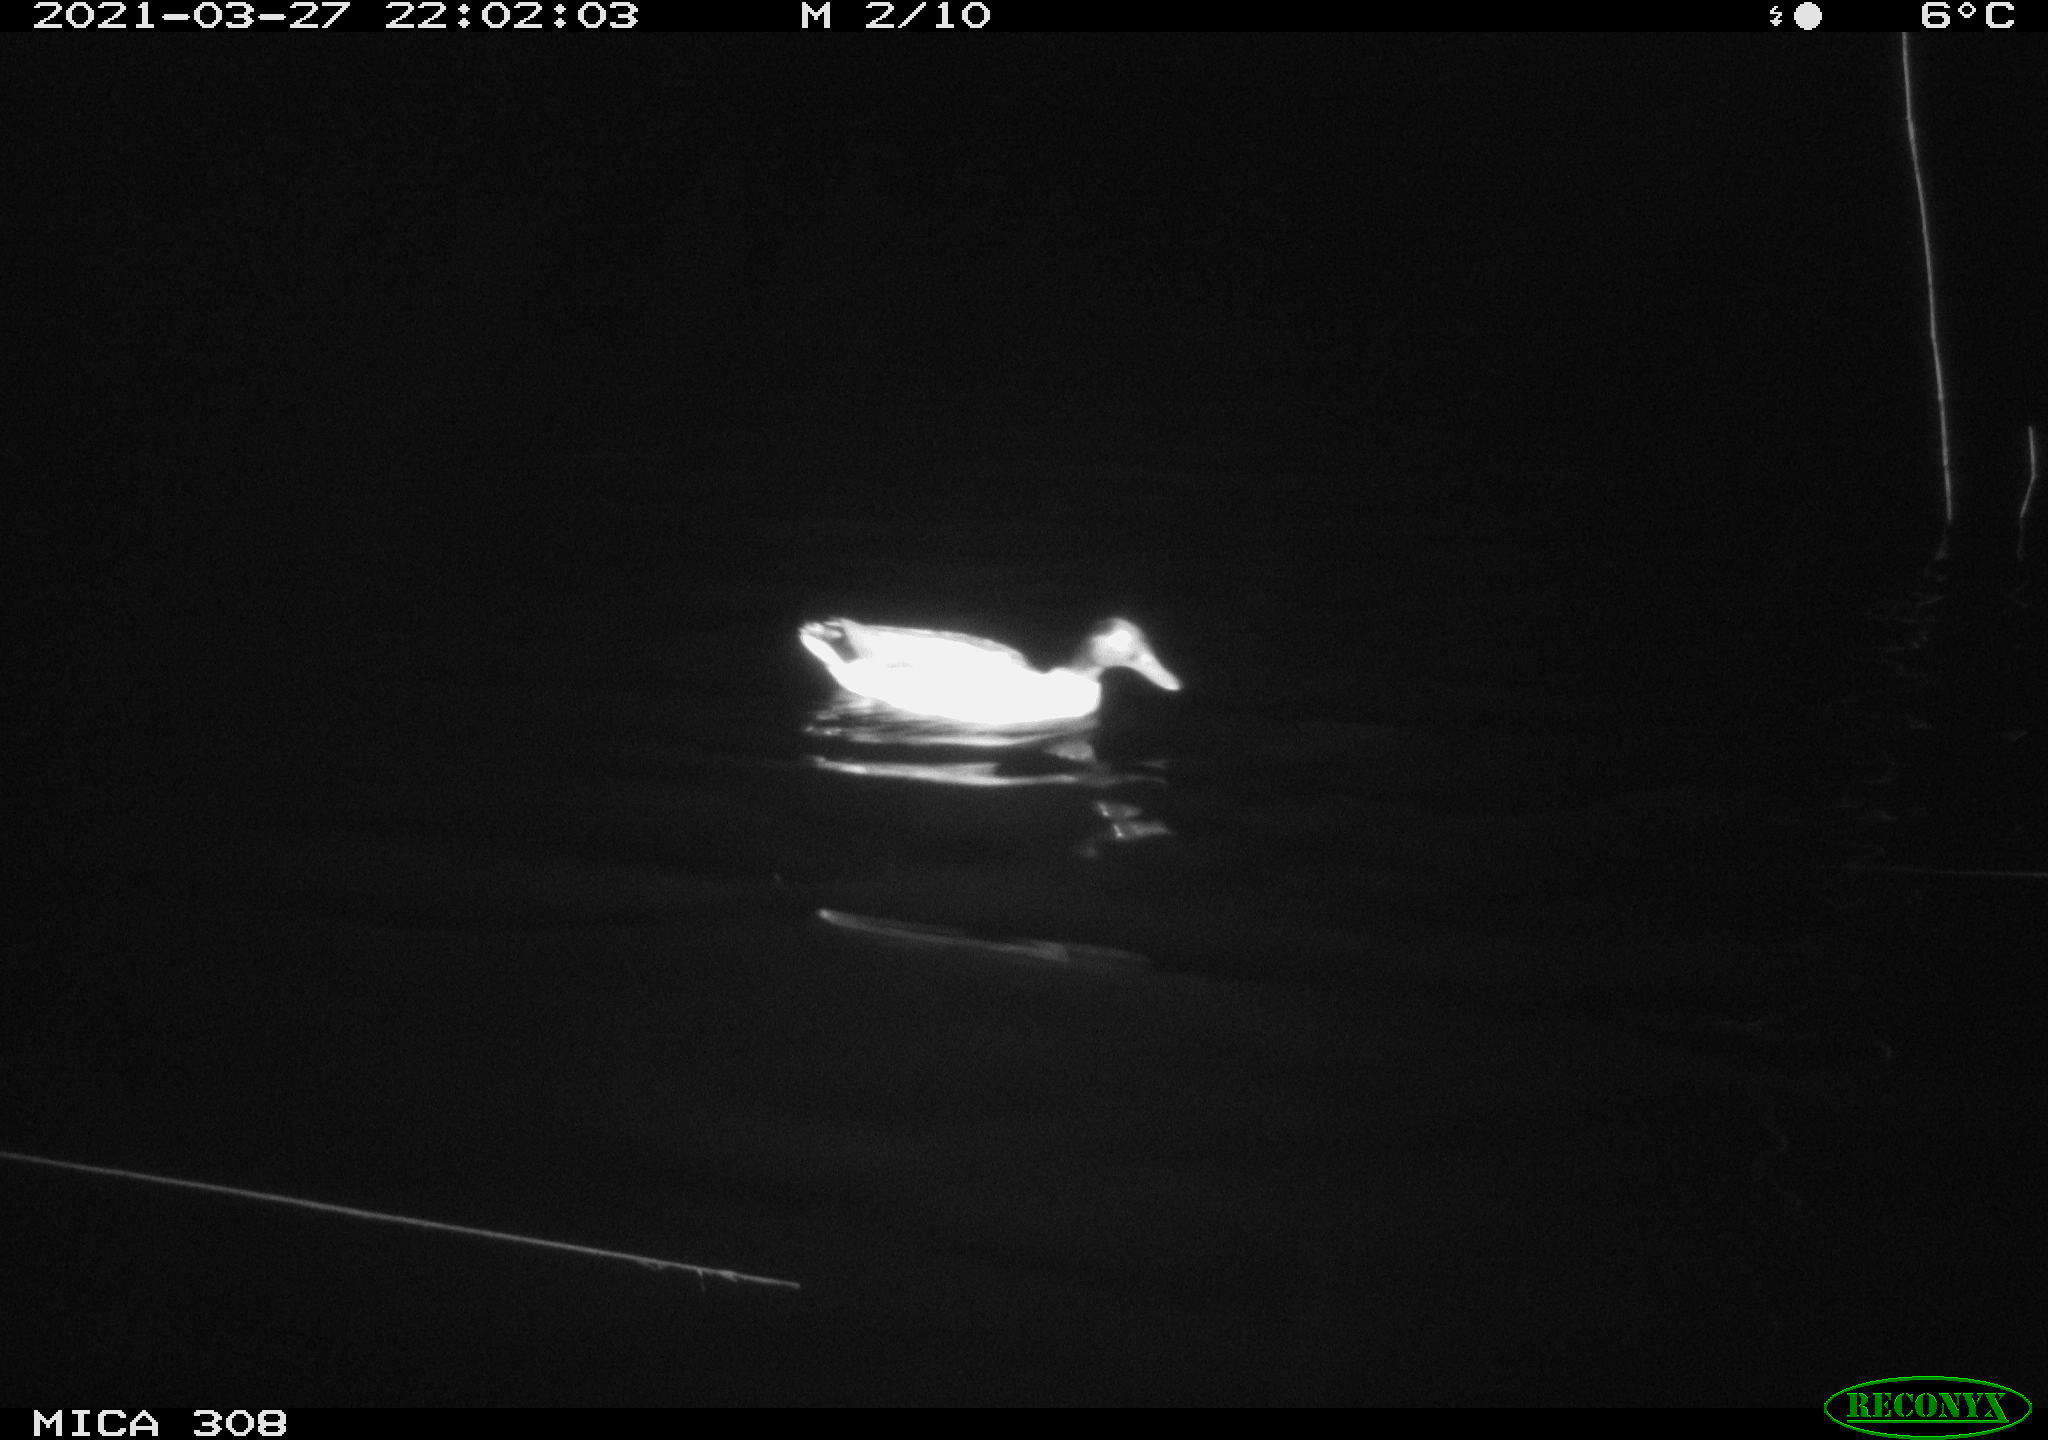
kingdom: Animalia
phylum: Chordata
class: Aves
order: Anseriformes
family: Anatidae
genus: Anas
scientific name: Anas platyrhynchos
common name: Mallard
